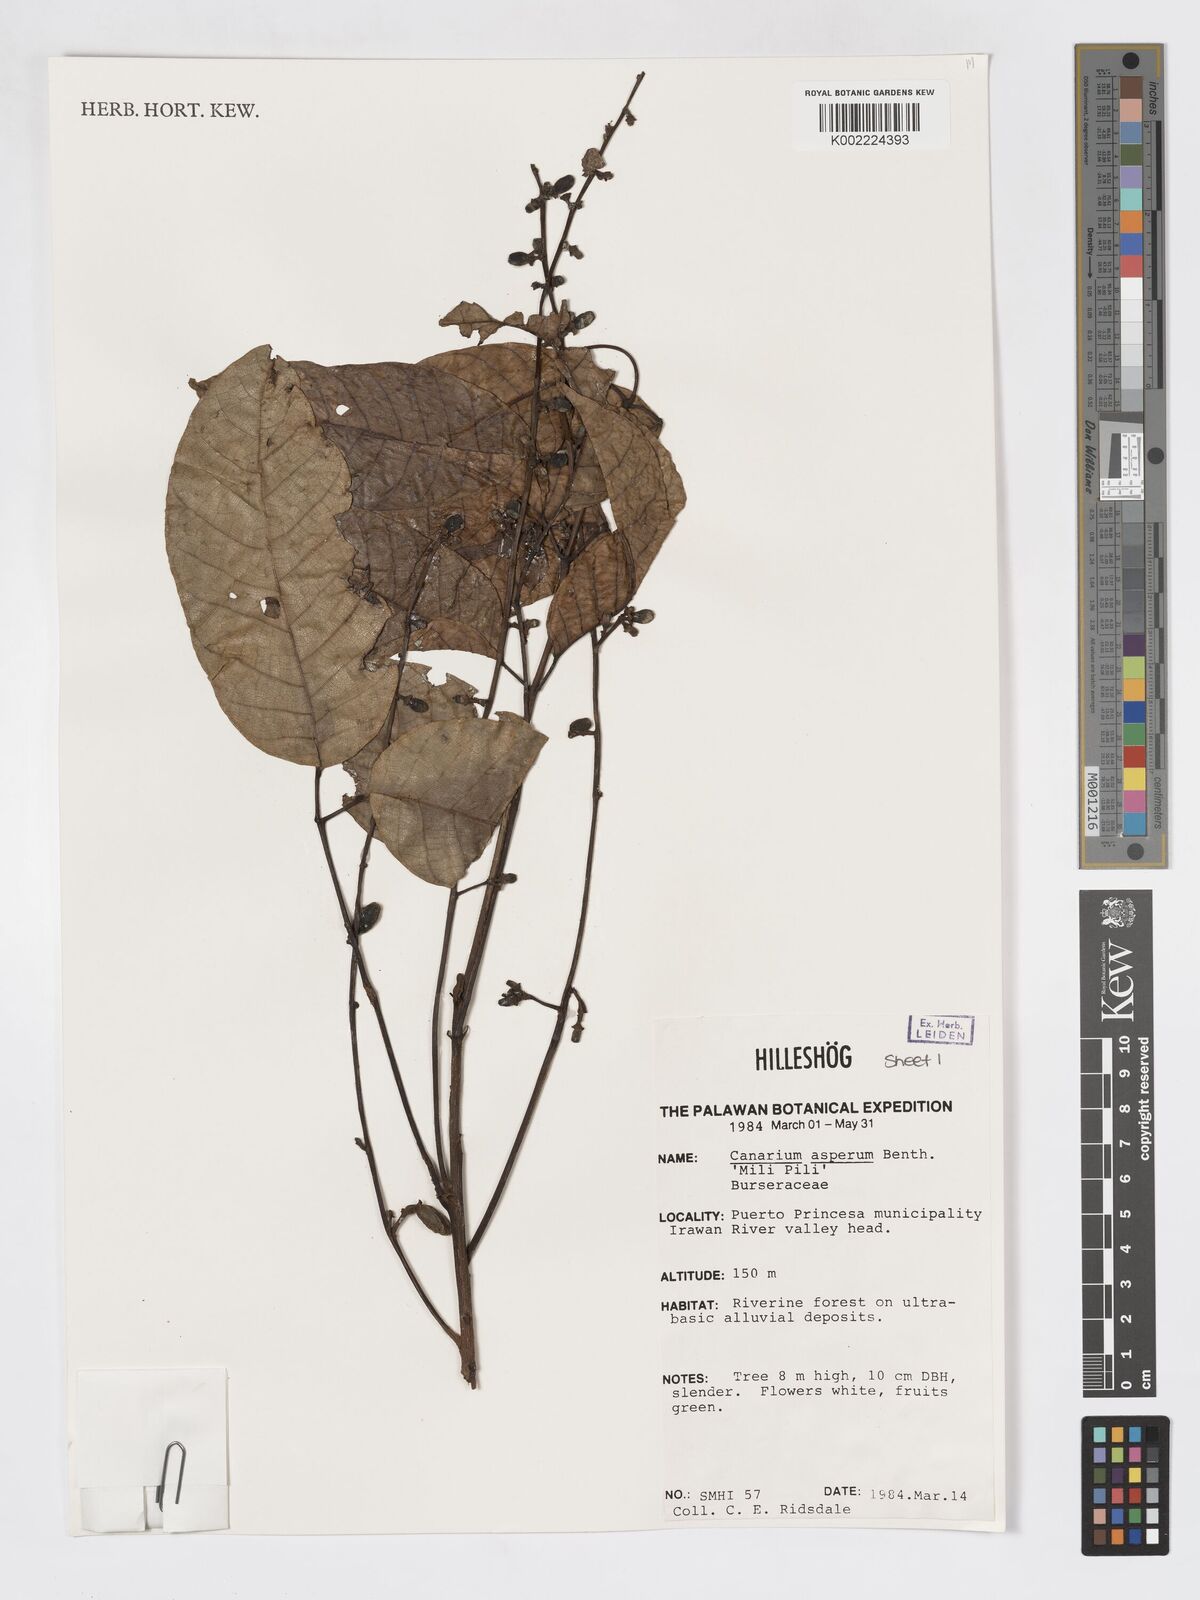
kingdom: Plantae
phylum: Tracheophyta
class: Magnoliopsida
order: Sapindales
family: Burseraceae
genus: Canarium
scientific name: Canarium asperum
